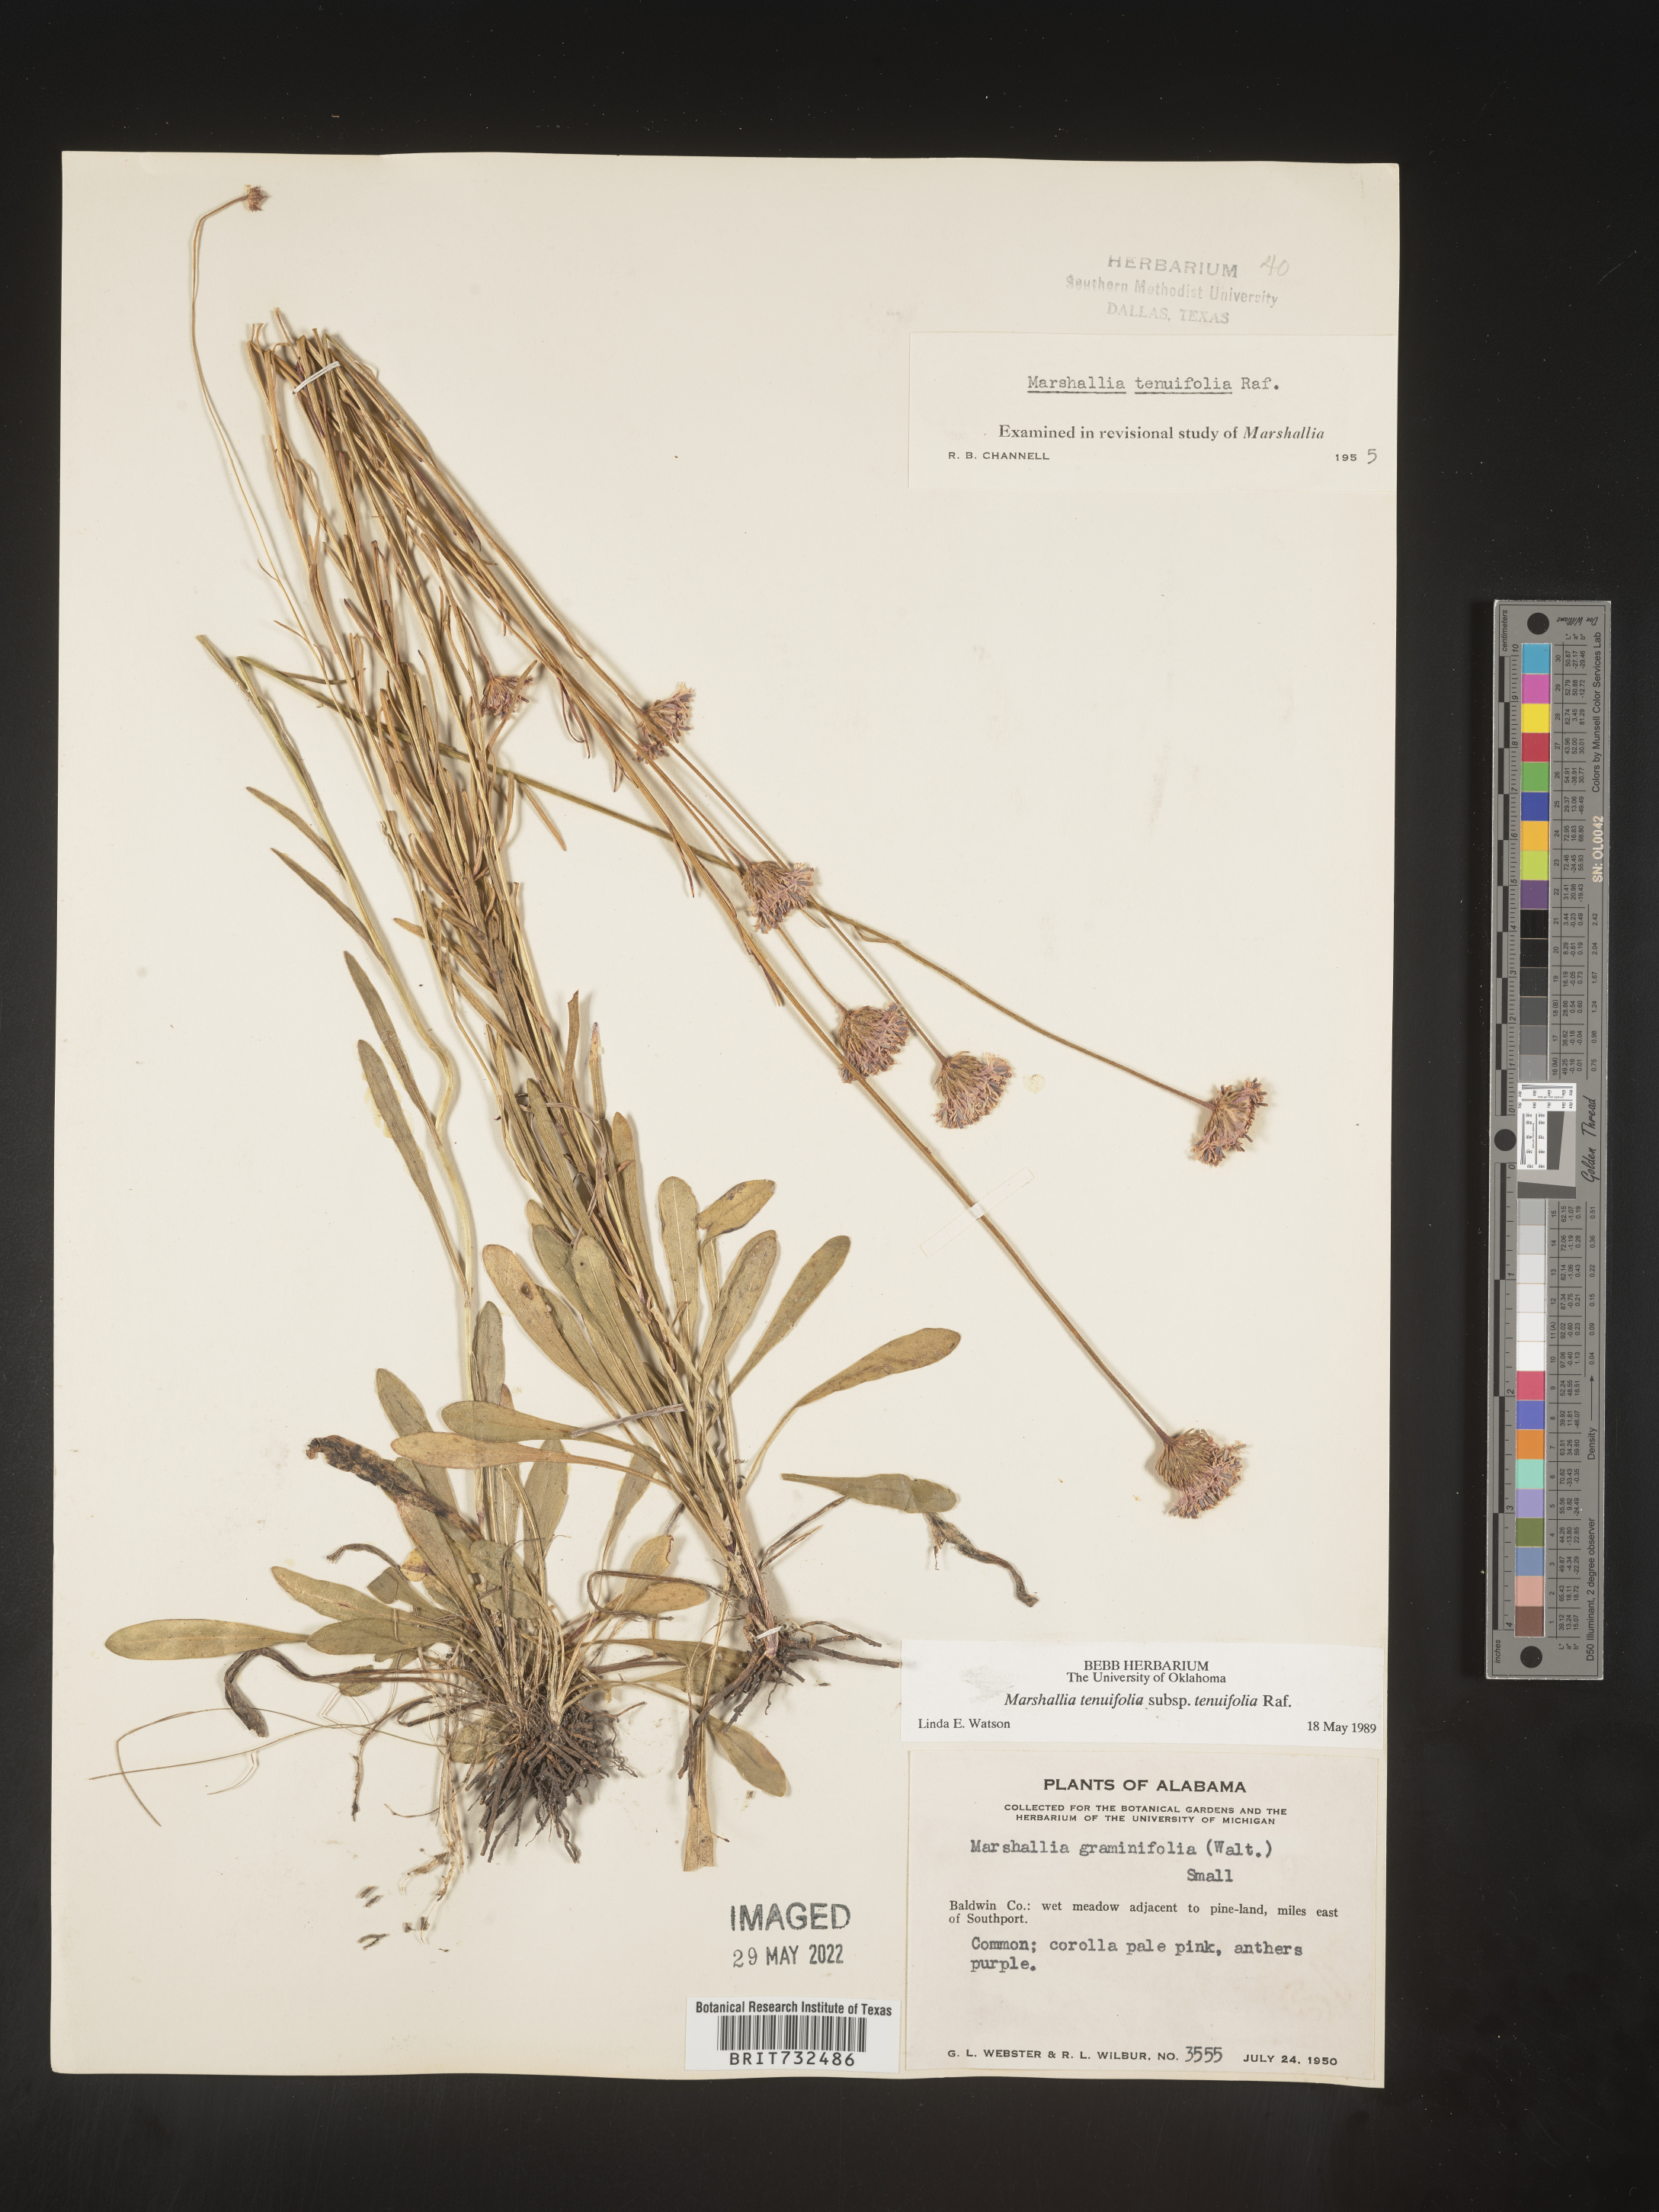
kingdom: Plantae
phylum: Tracheophyta
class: Magnoliopsida
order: Asterales
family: Asteraceae
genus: Vernonia
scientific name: Vernonia angustifolia
